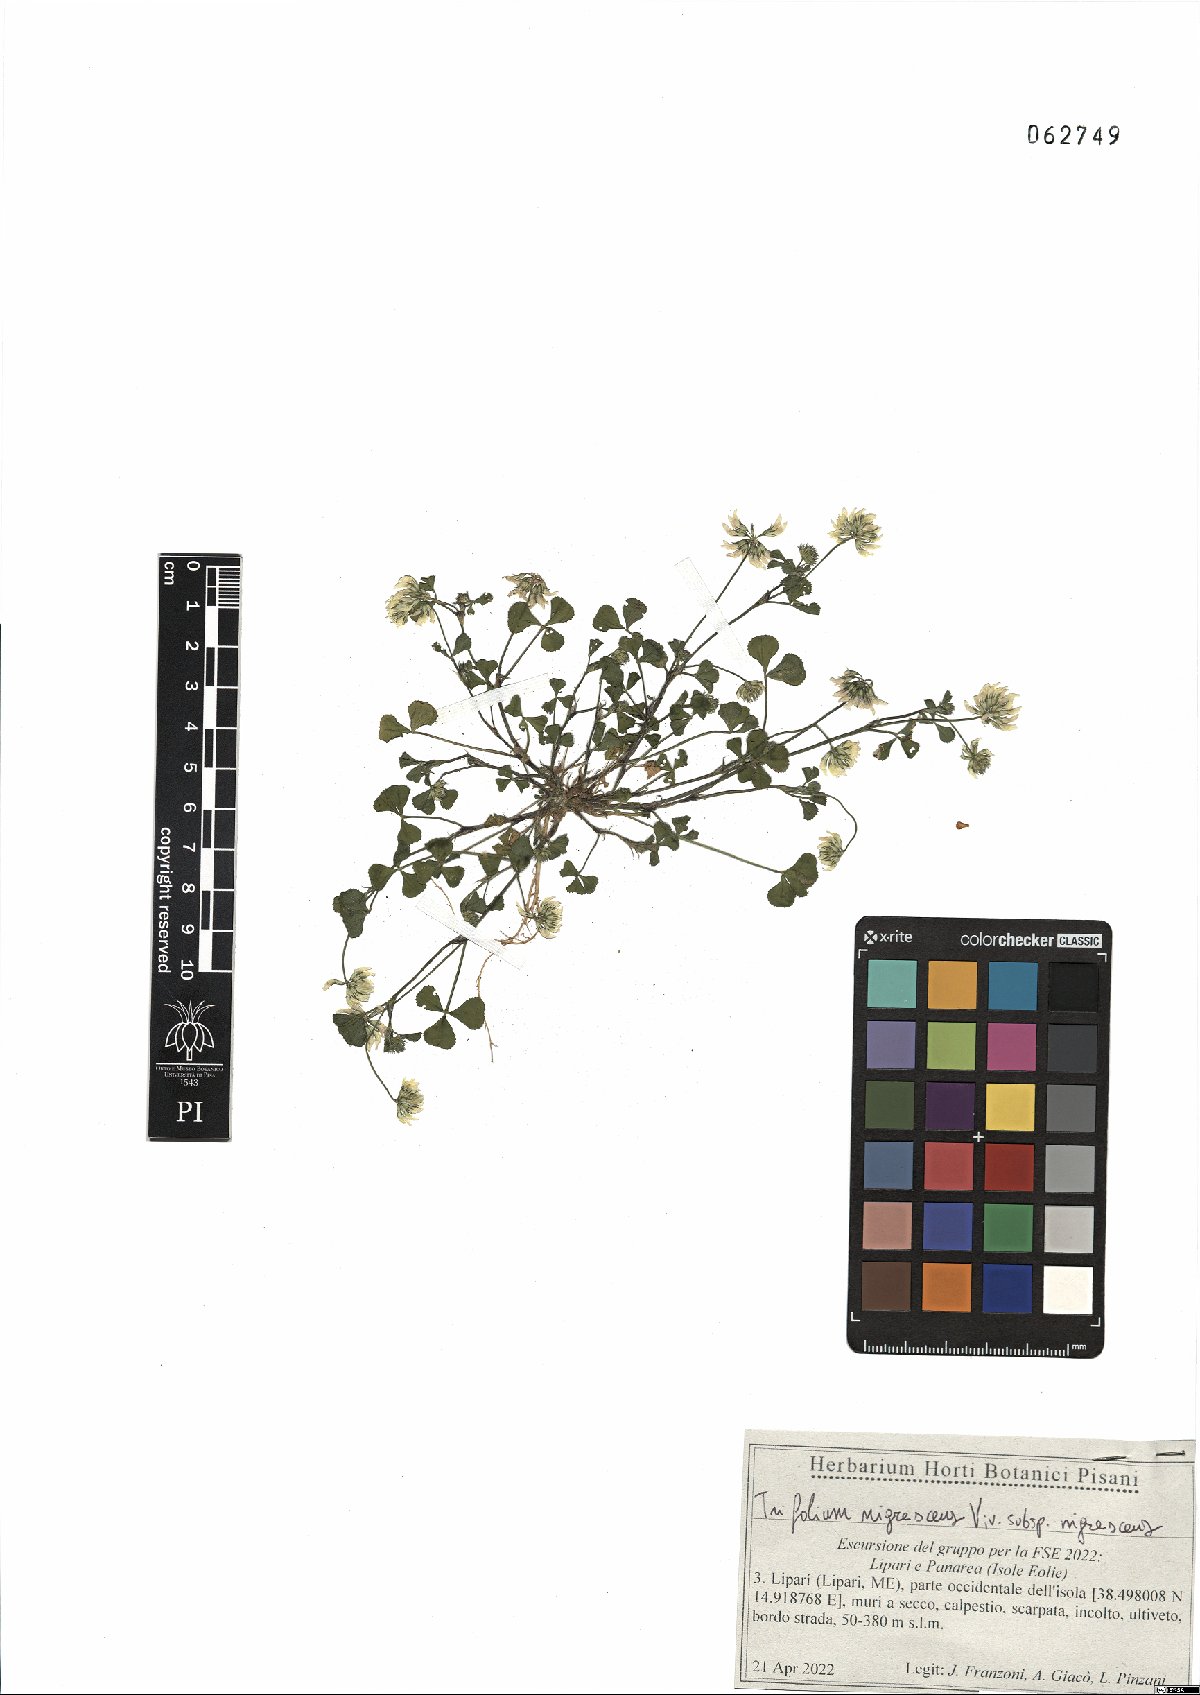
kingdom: Plantae
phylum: Tracheophyta
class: Magnoliopsida
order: Fabales
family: Fabaceae
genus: Trifolium
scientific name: Trifolium nigrescens
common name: Small white clover
